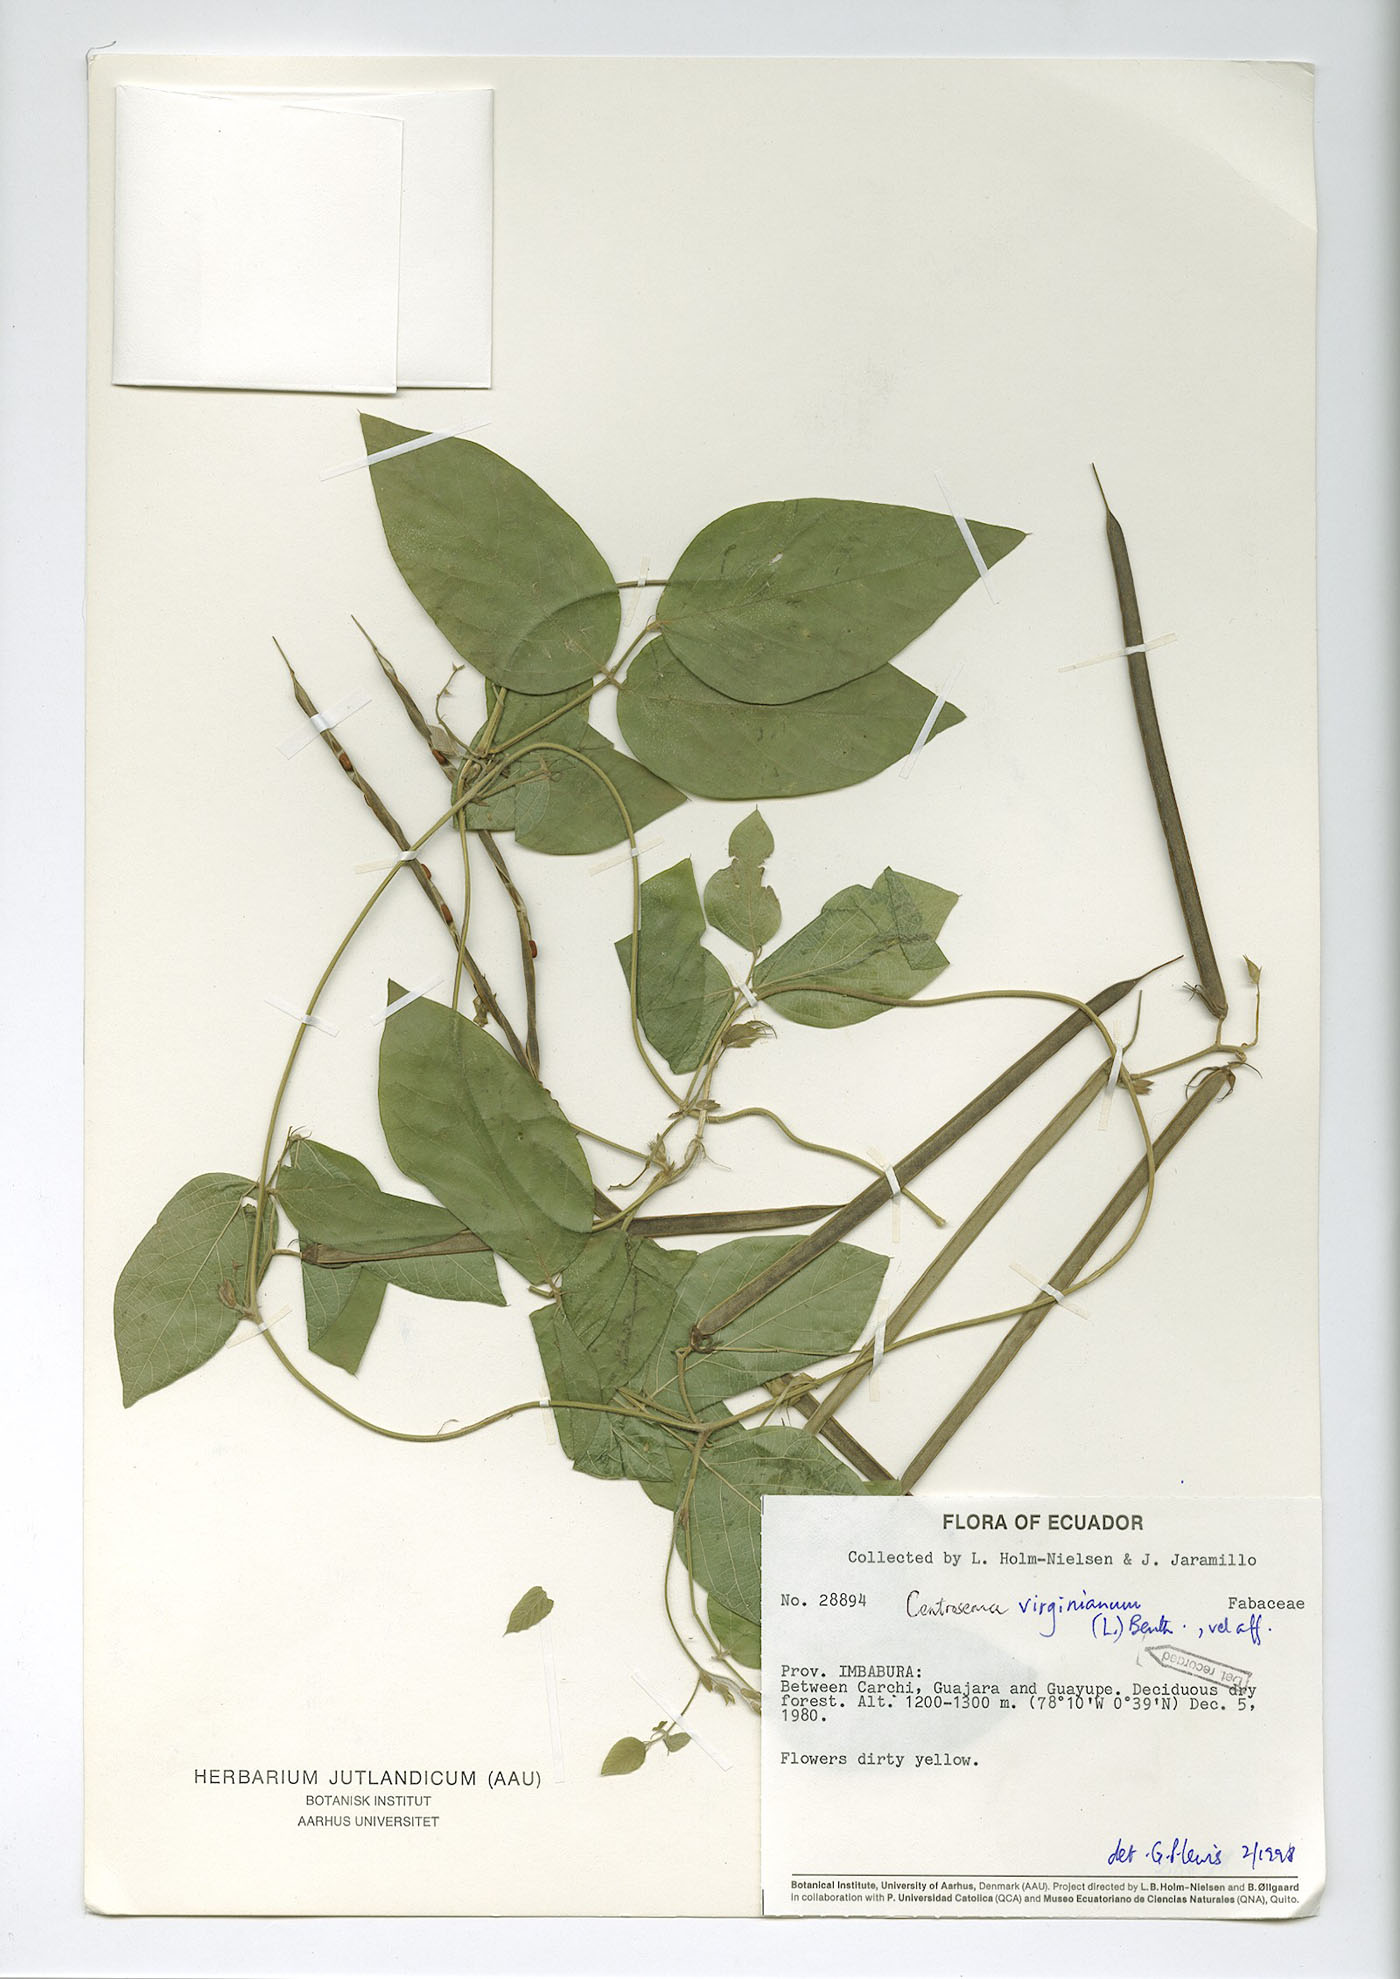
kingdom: Plantae
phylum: Tracheophyta
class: Magnoliopsida
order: Fabales
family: Fabaceae
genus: Centrosema
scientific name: Centrosema virginianum
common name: Butterfly-pea
